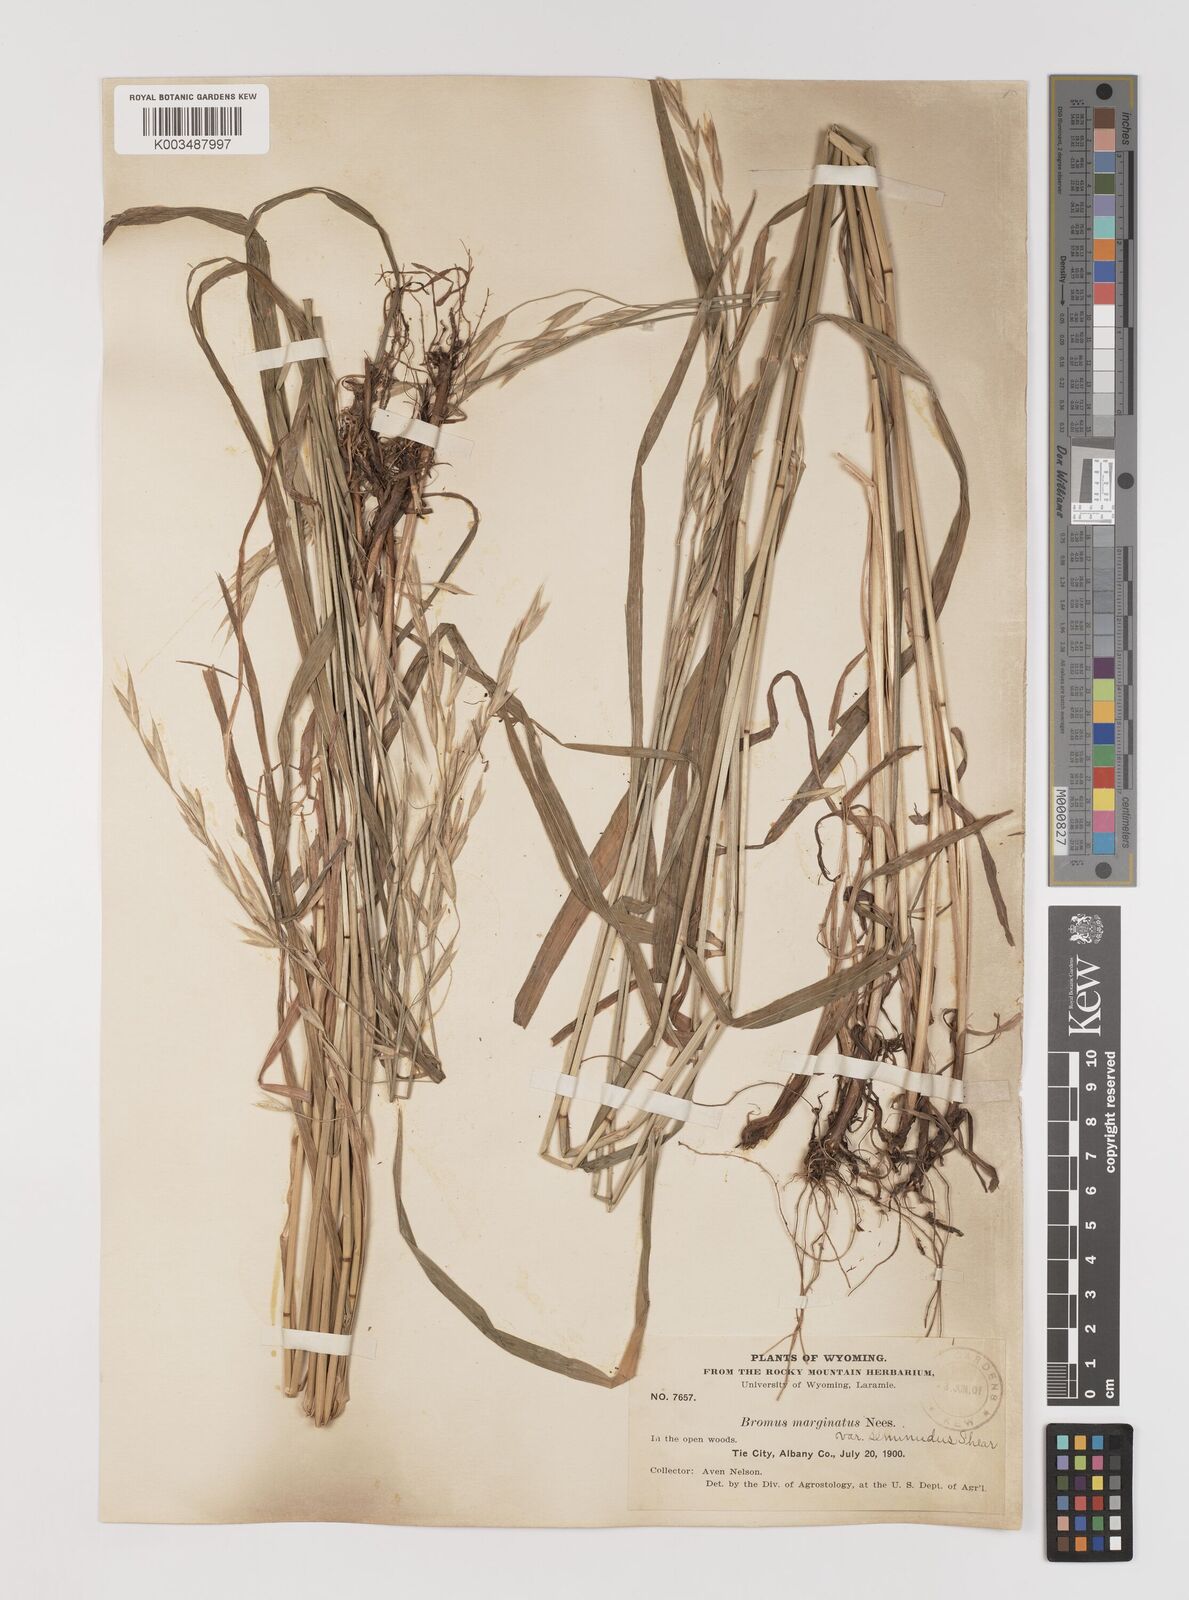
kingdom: Plantae
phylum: Tracheophyta
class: Liliopsida
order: Poales
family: Poaceae
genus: Bromus
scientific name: Bromus marginatus
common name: Western brome
